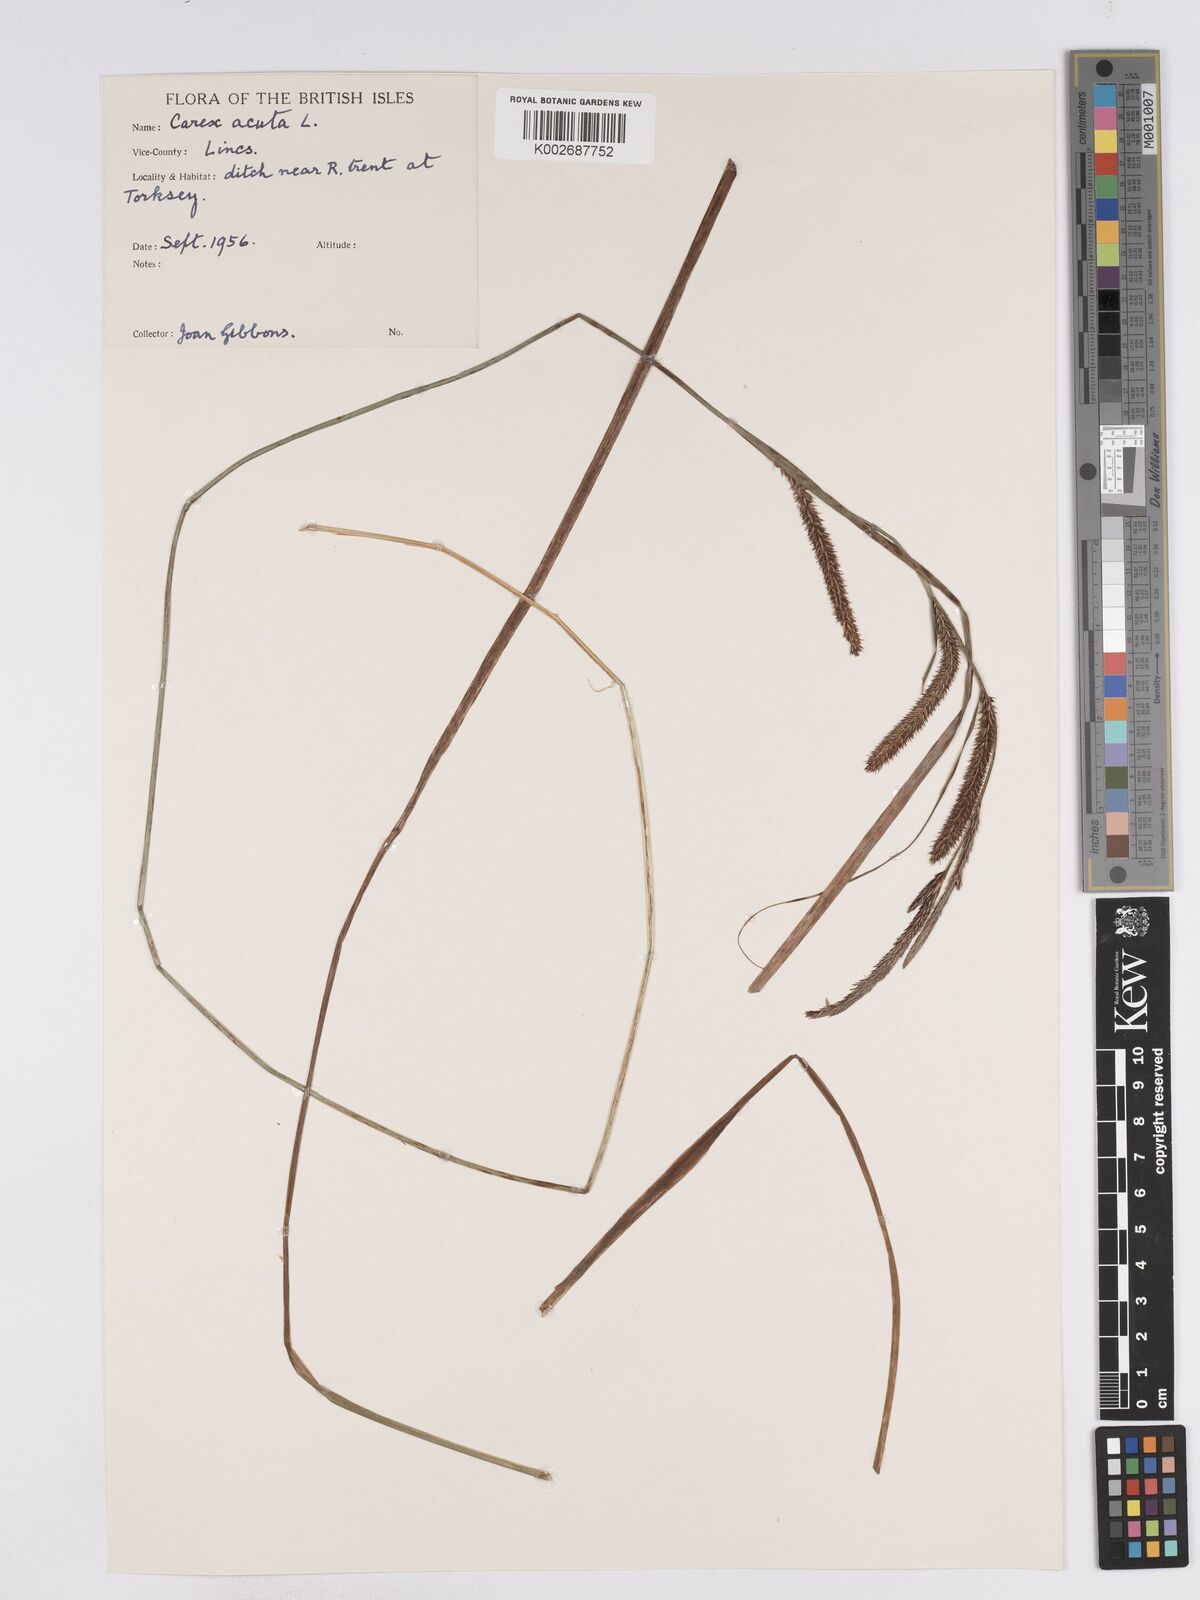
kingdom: Plantae
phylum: Tracheophyta
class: Liliopsida
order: Poales
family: Cyperaceae
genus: Carex
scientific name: Carex acuta
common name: Slender tufted-sedge
